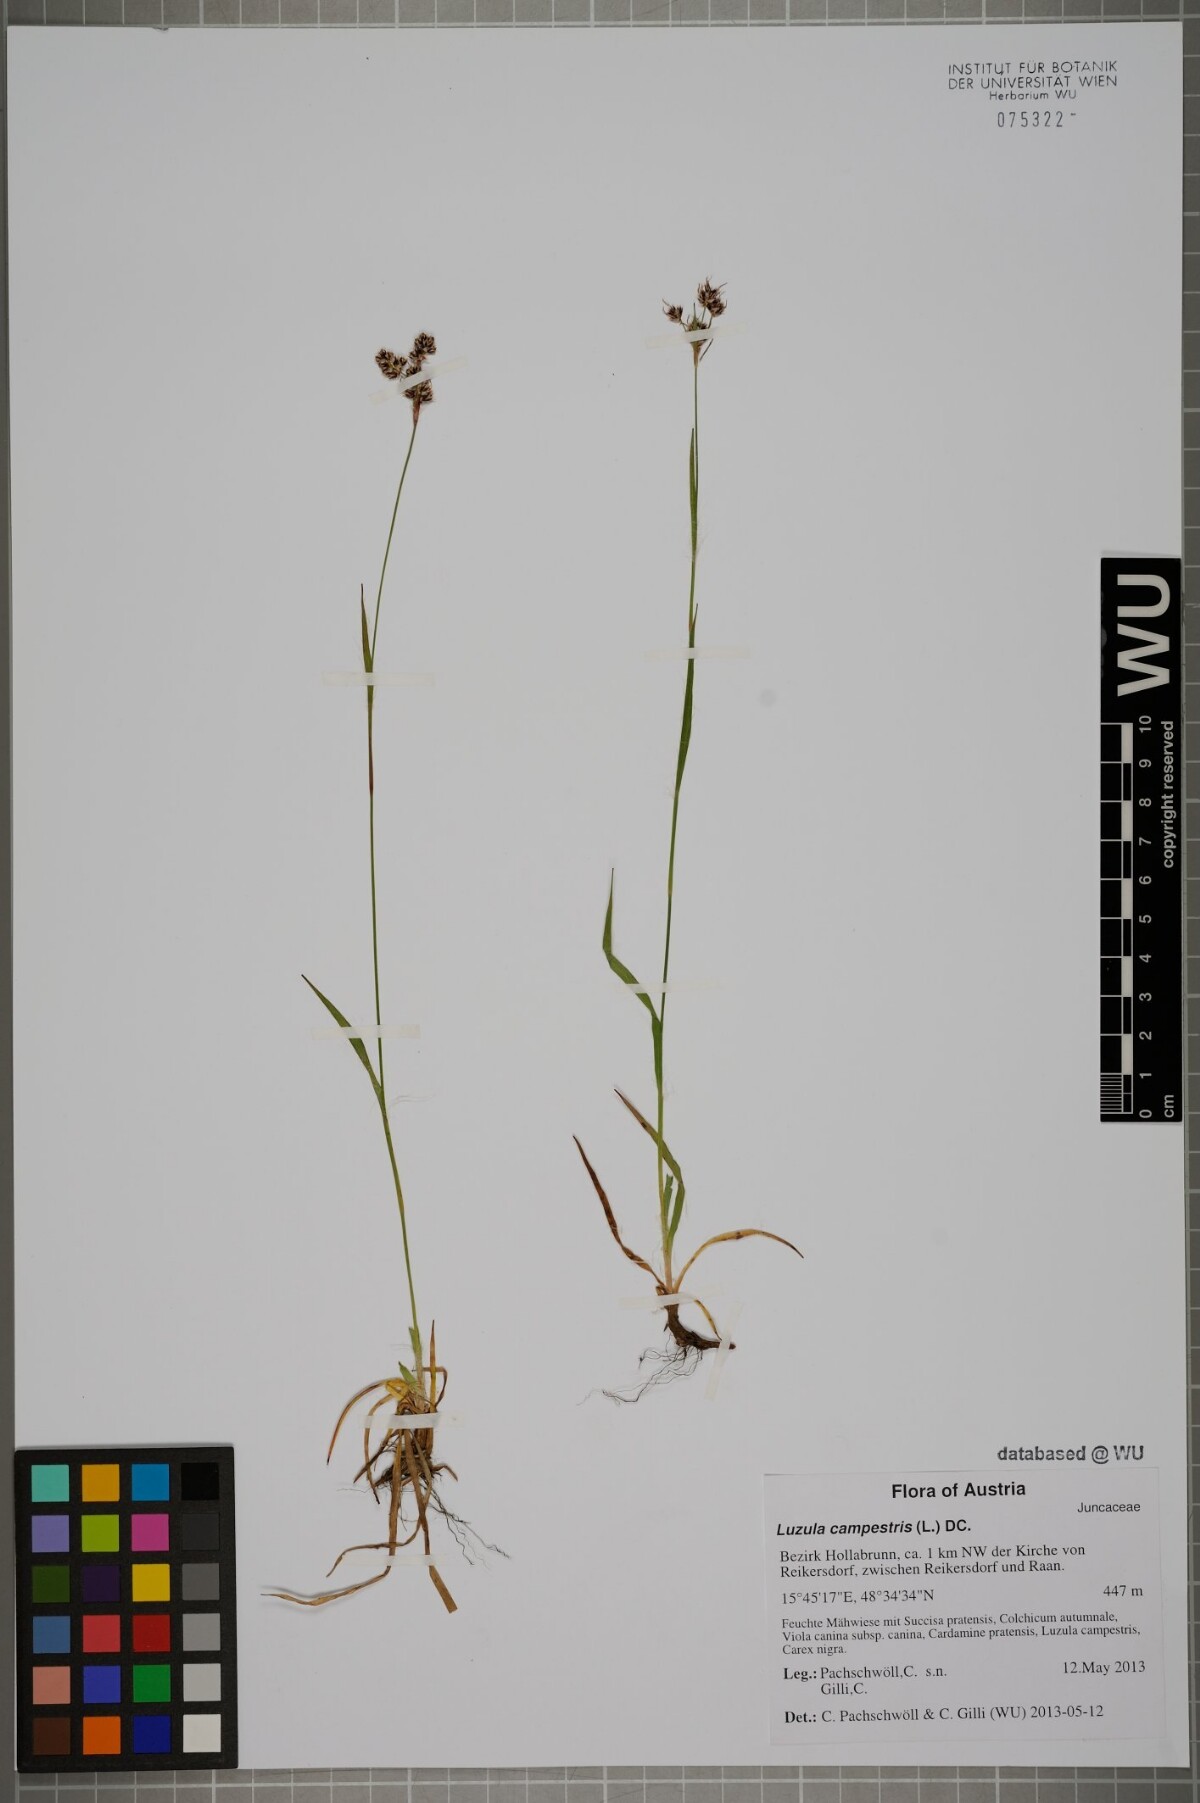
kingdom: Plantae
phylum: Tracheophyta
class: Liliopsida
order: Poales
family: Juncaceae
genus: Luzula
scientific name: Luzula campestris
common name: Field wood-rush
